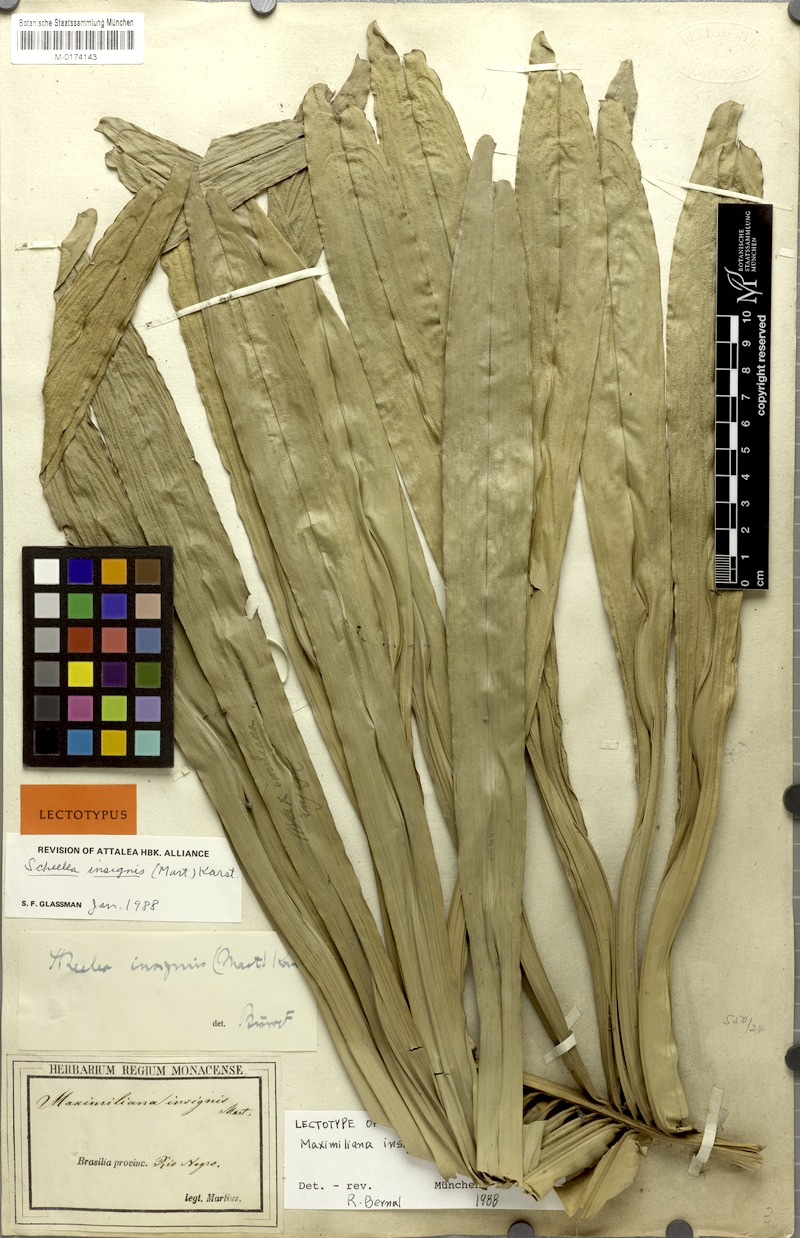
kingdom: Plantae
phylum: Tracheophyta
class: Liliopsida
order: Arecales
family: Arecaceae
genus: Attalea
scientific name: Attalea insignis
